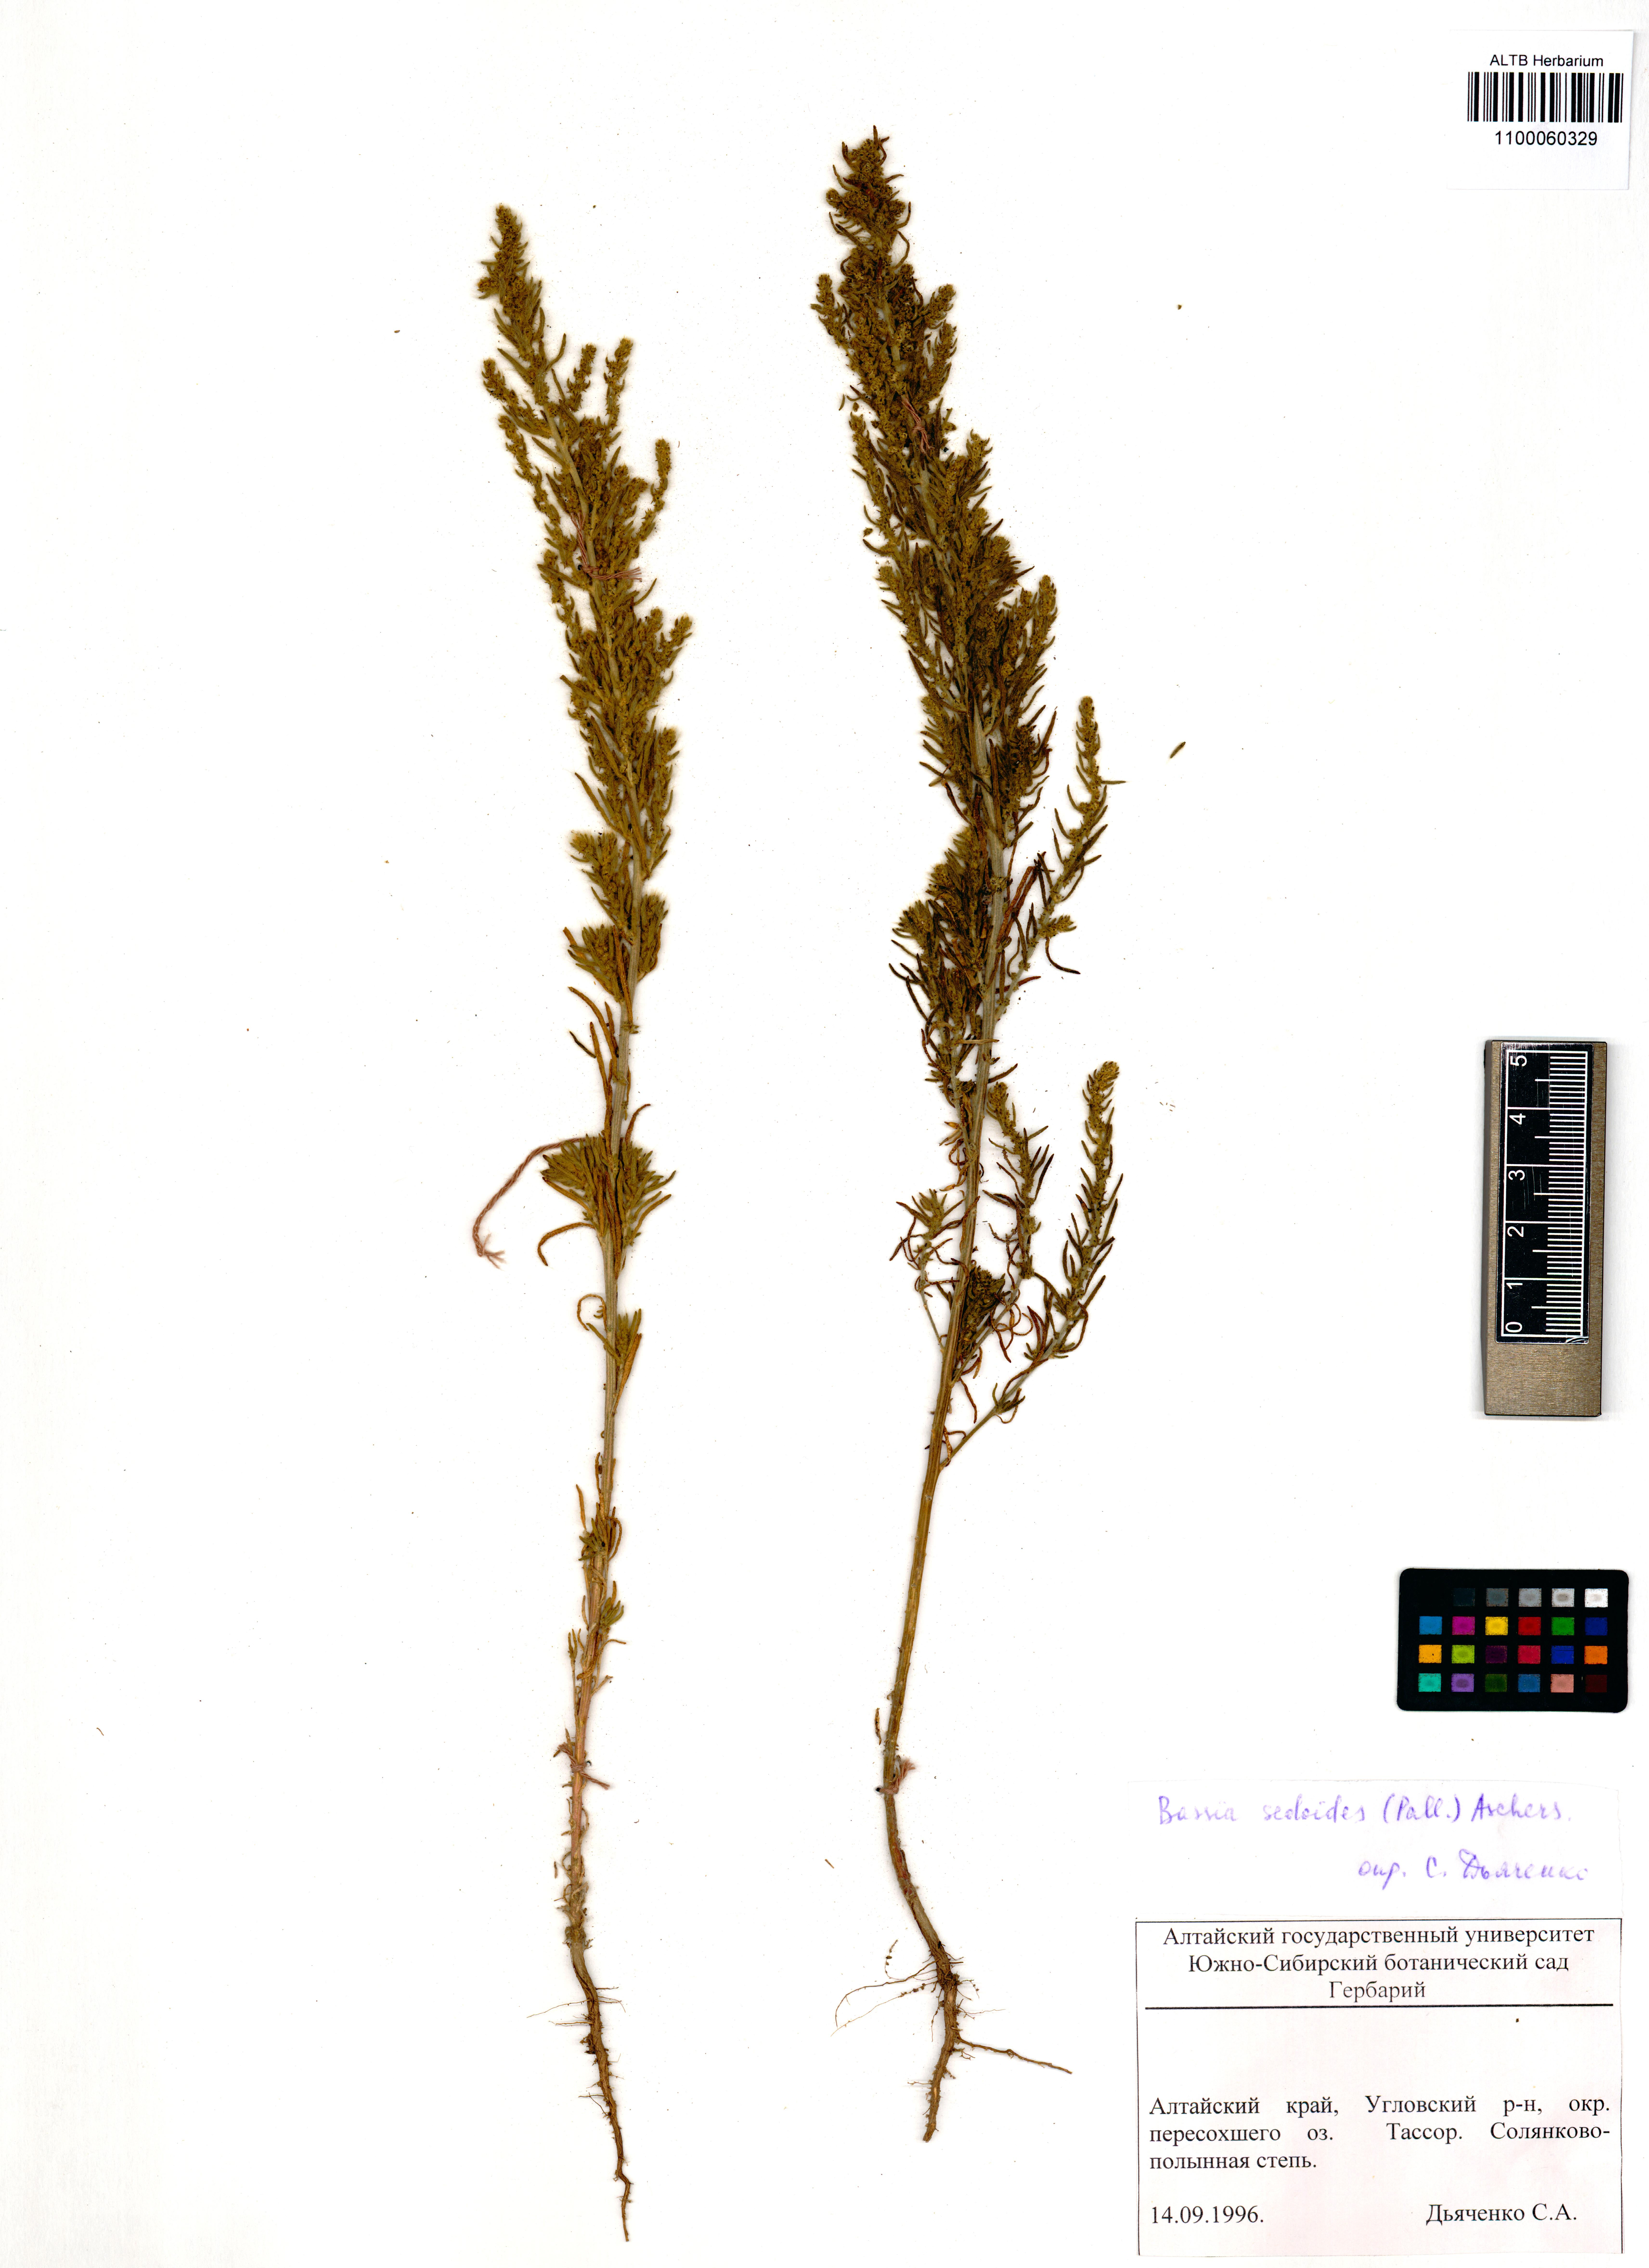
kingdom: Plantae
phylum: Tracheophyta
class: Magnoliopsida
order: Caryophyllales
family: Amaranthaceae
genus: Sedobassia
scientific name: Sedobassia sedoides
